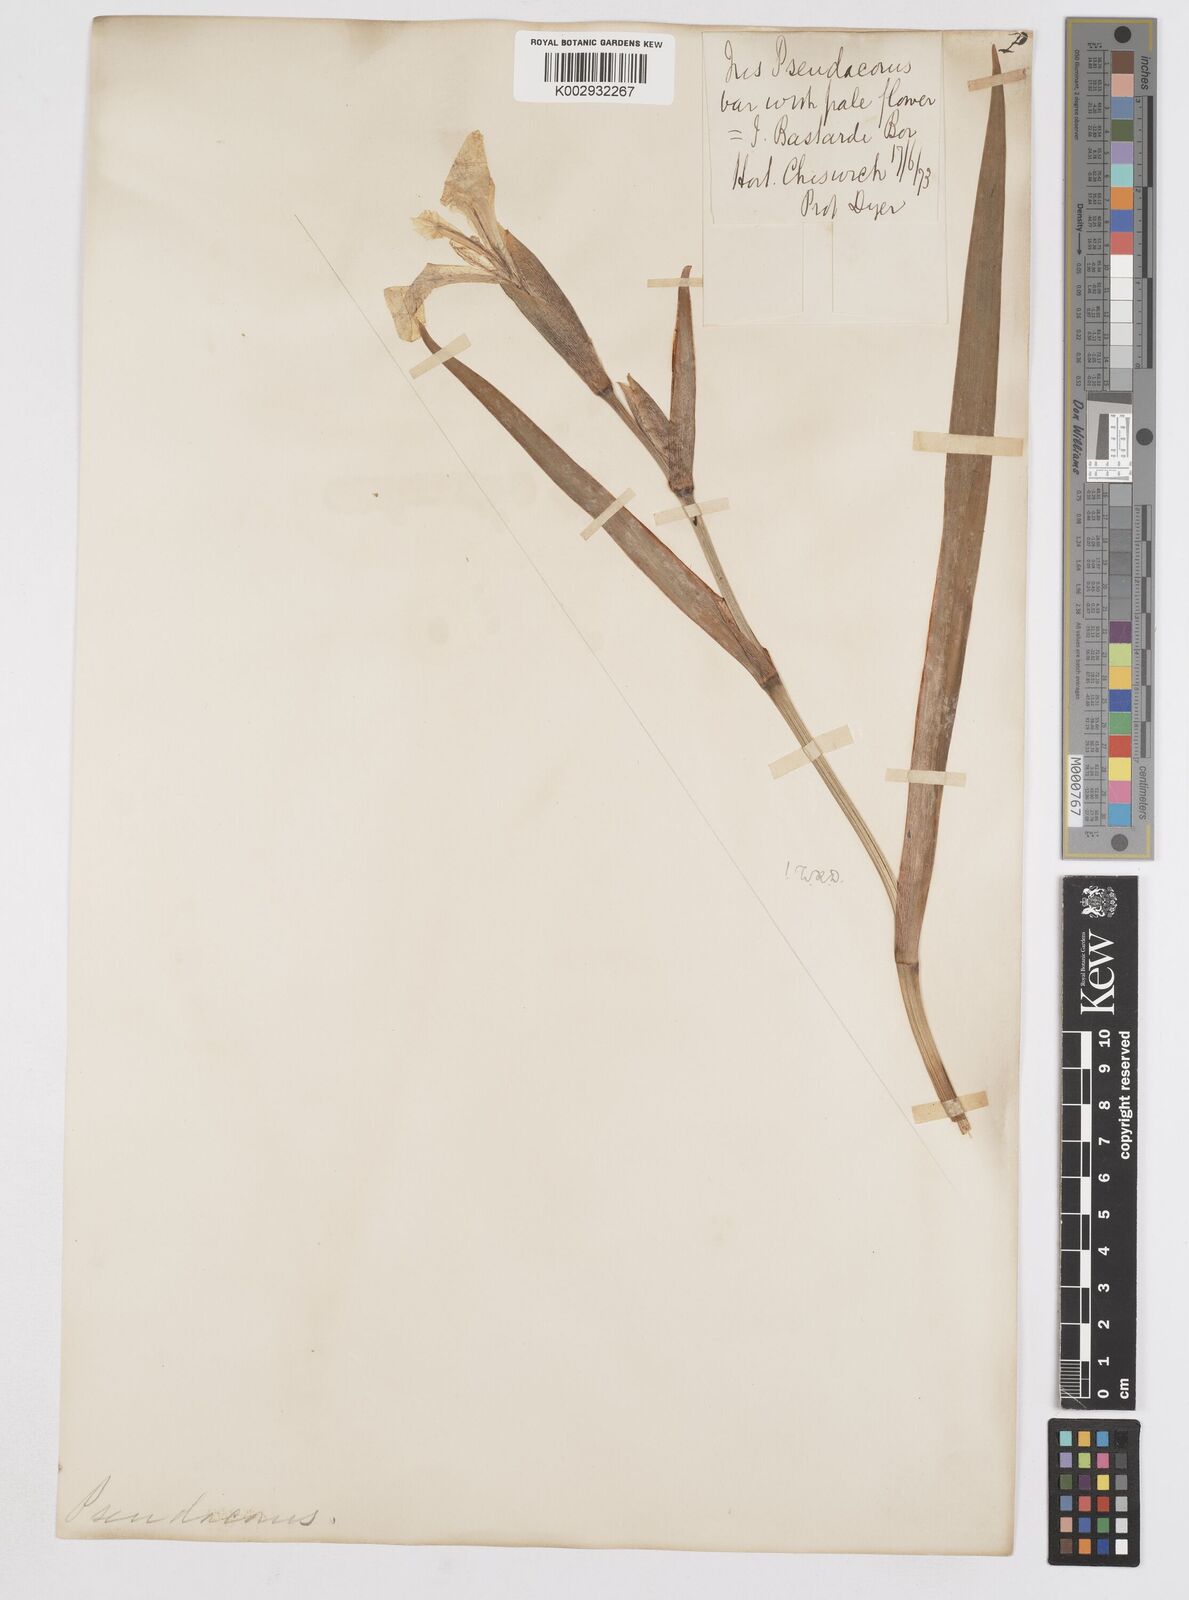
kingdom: Plantae
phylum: Tracheophyta
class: Liliopsida
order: Asparagales
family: Iridaceae
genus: Iris
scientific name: Iris pseudacorus
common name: Yellow flag
